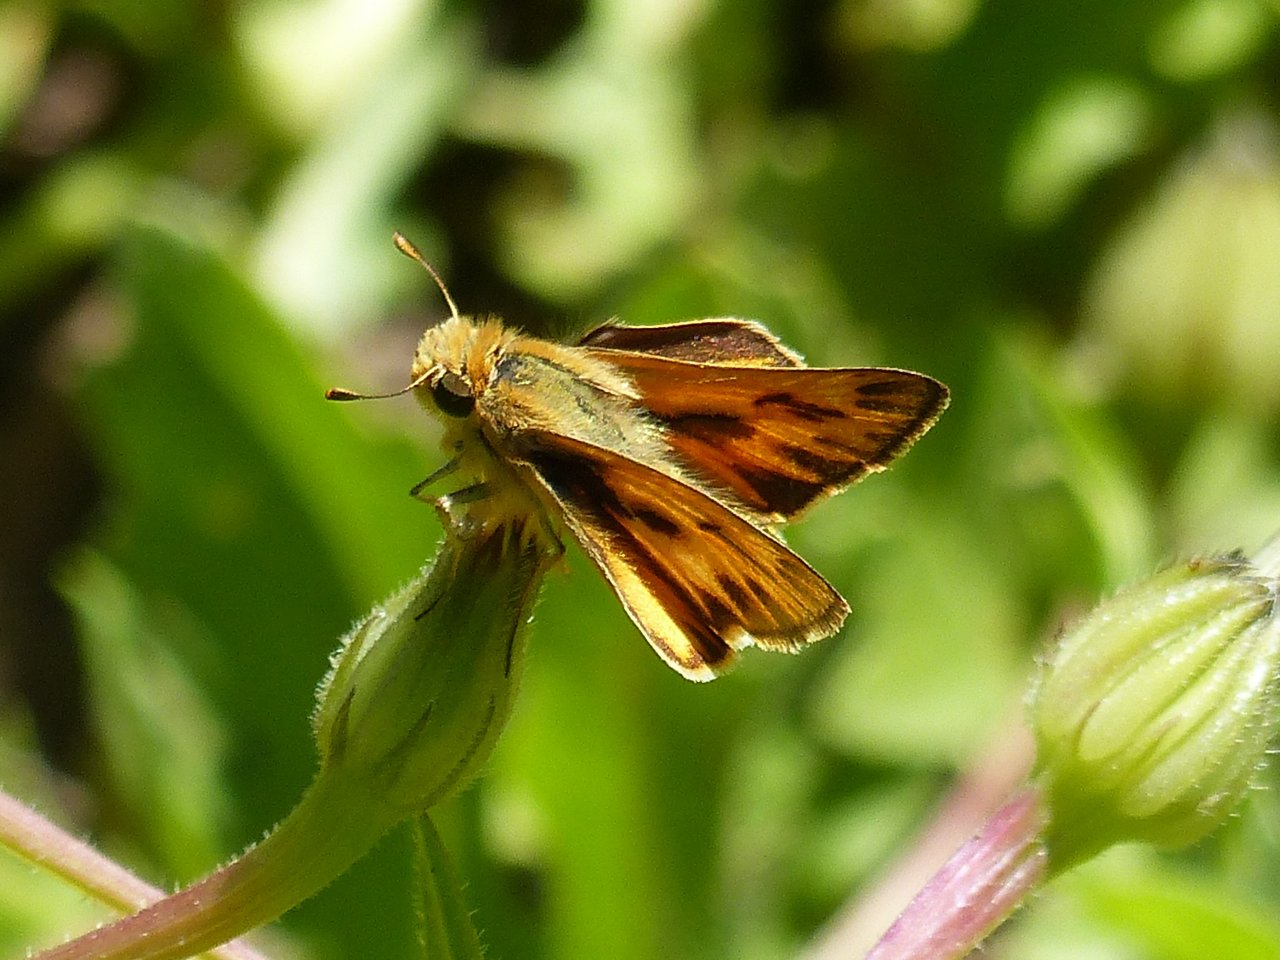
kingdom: Animalia
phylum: Arthropoda
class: Insecta
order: Lepidoptera
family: Hesperiidae
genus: Hylephila
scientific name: Hylephila phyleus
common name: Fiery Skipper
